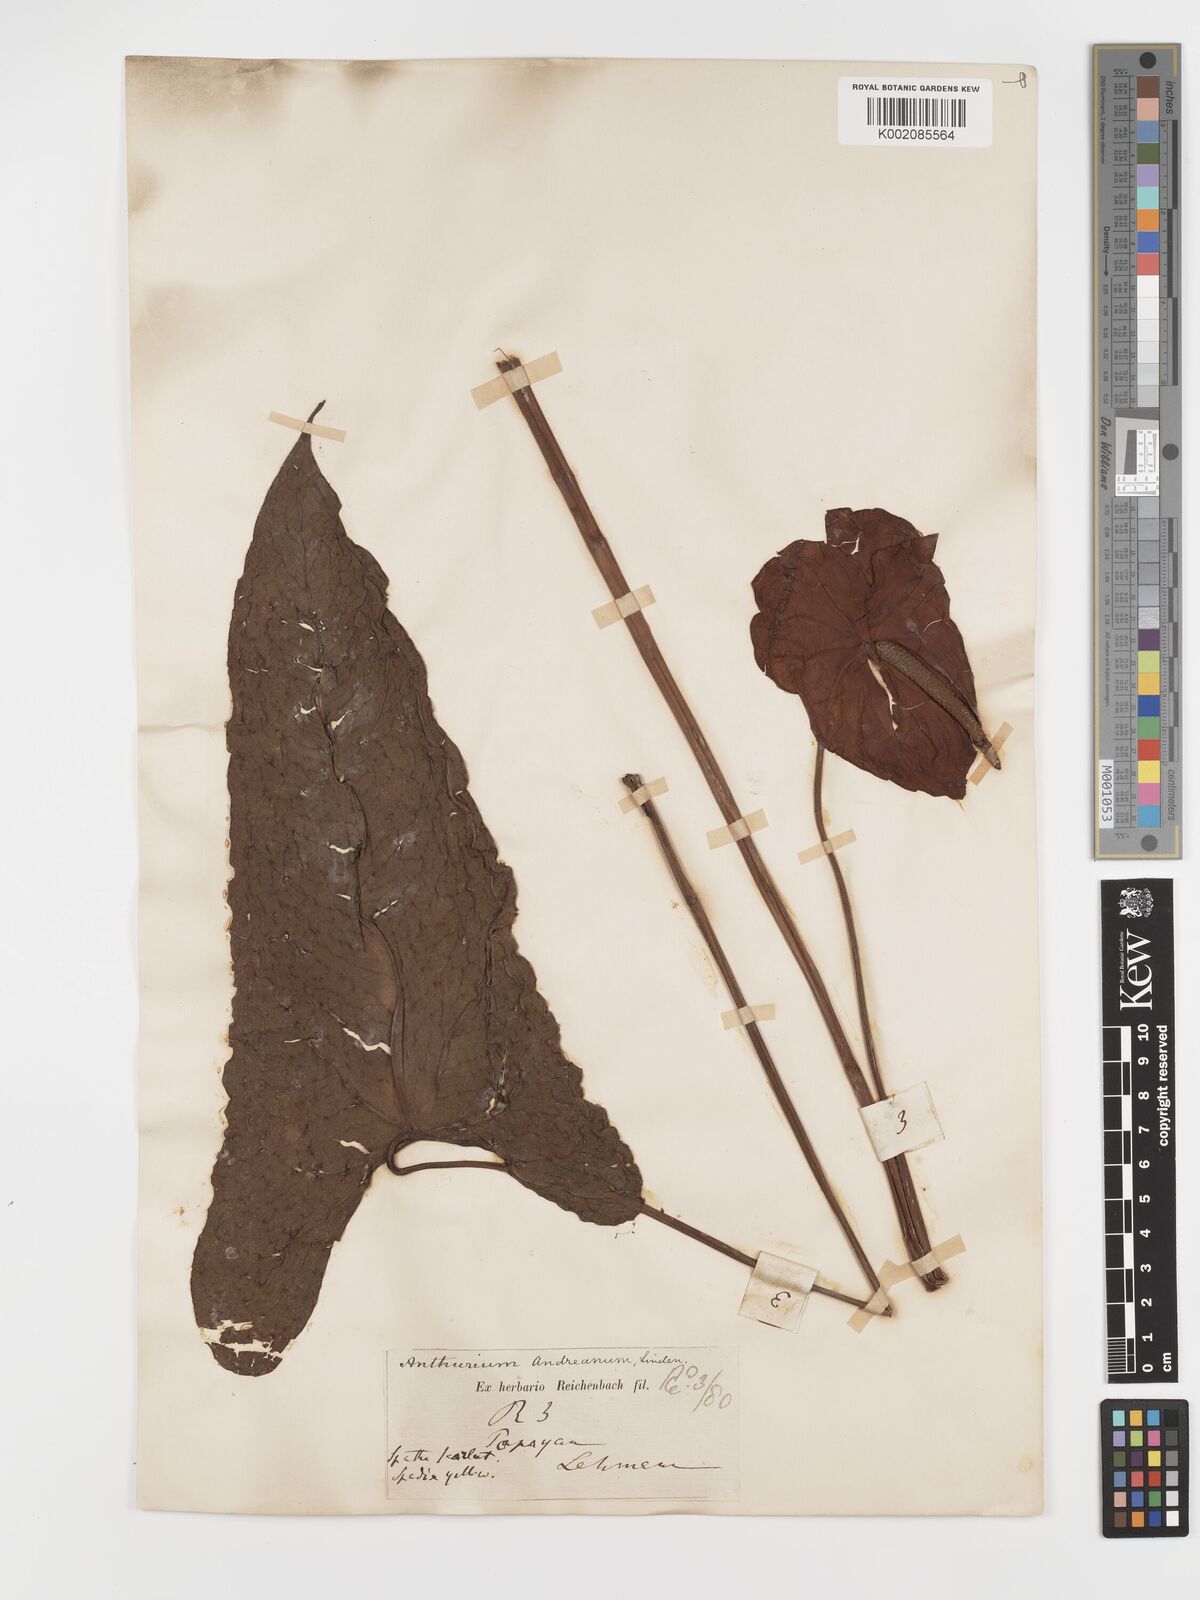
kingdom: Plantae
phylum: Tracheophyta
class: Liliopsida
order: Alismatales
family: Araceae
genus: Anthurium
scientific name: Anthurium andraeanum
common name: Flamingo-flower
